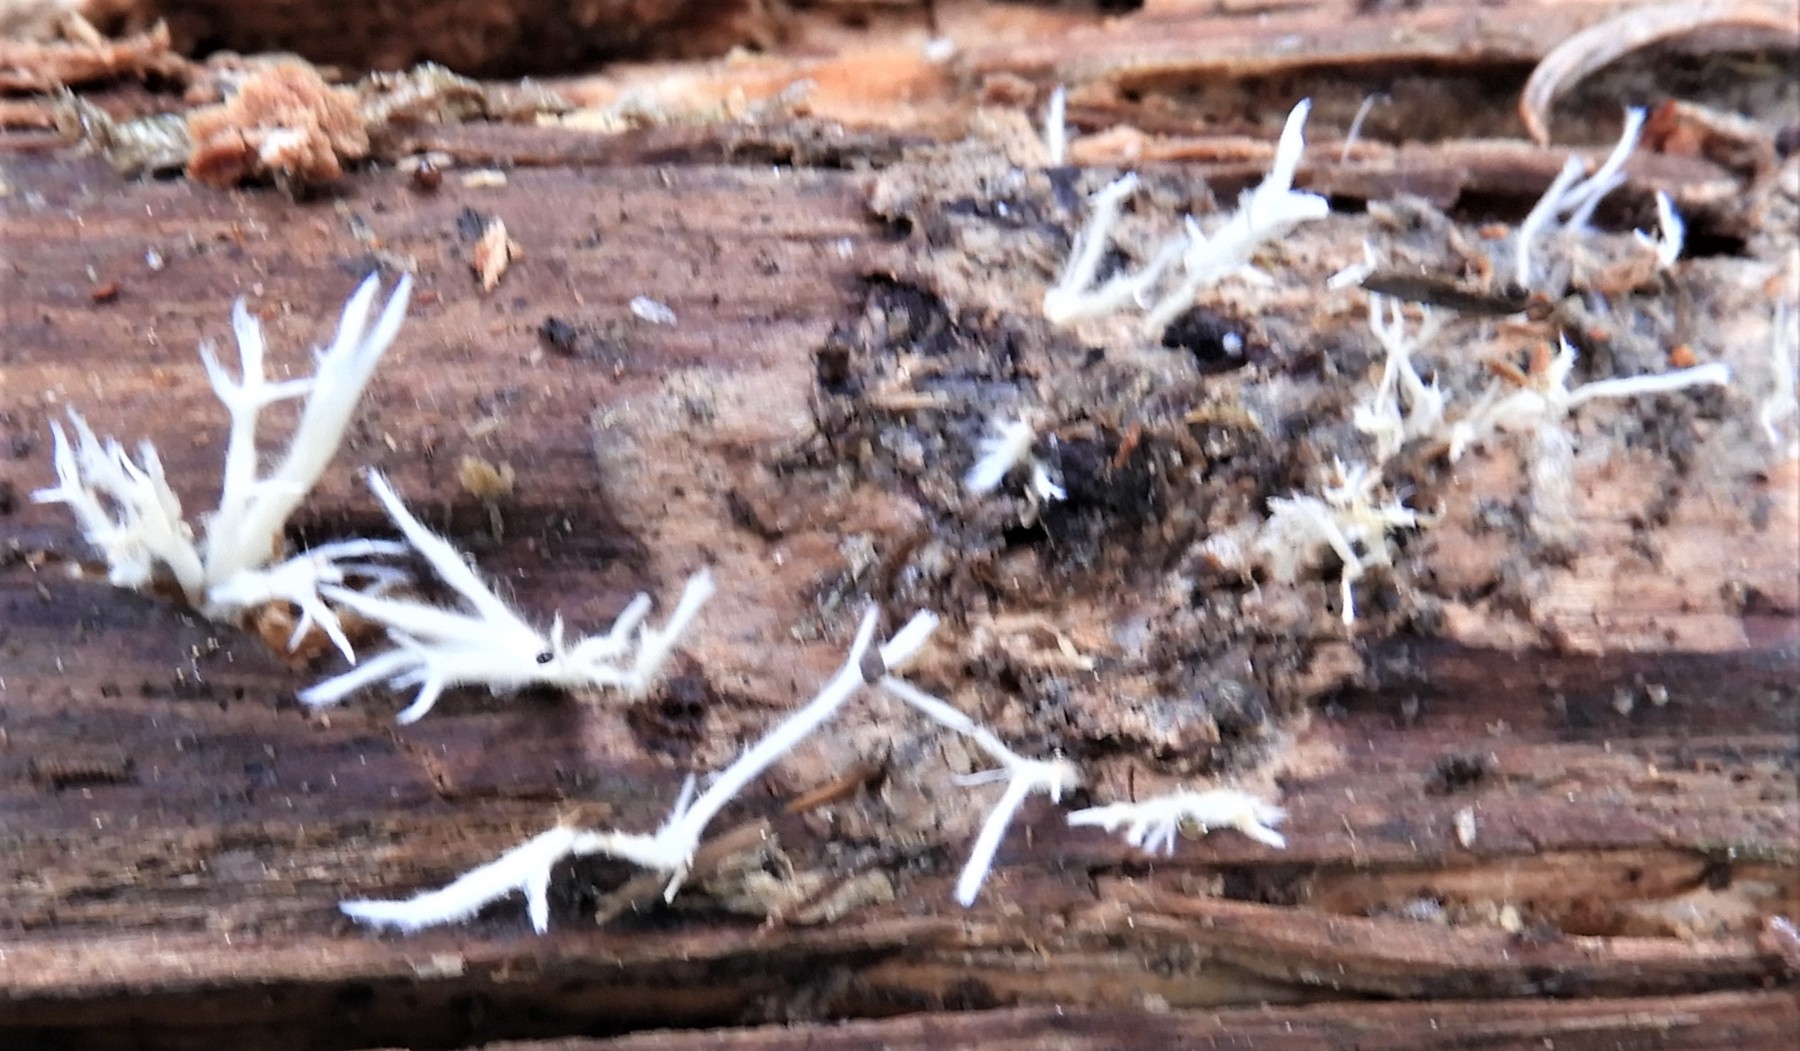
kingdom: Fungi
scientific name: Fungi
